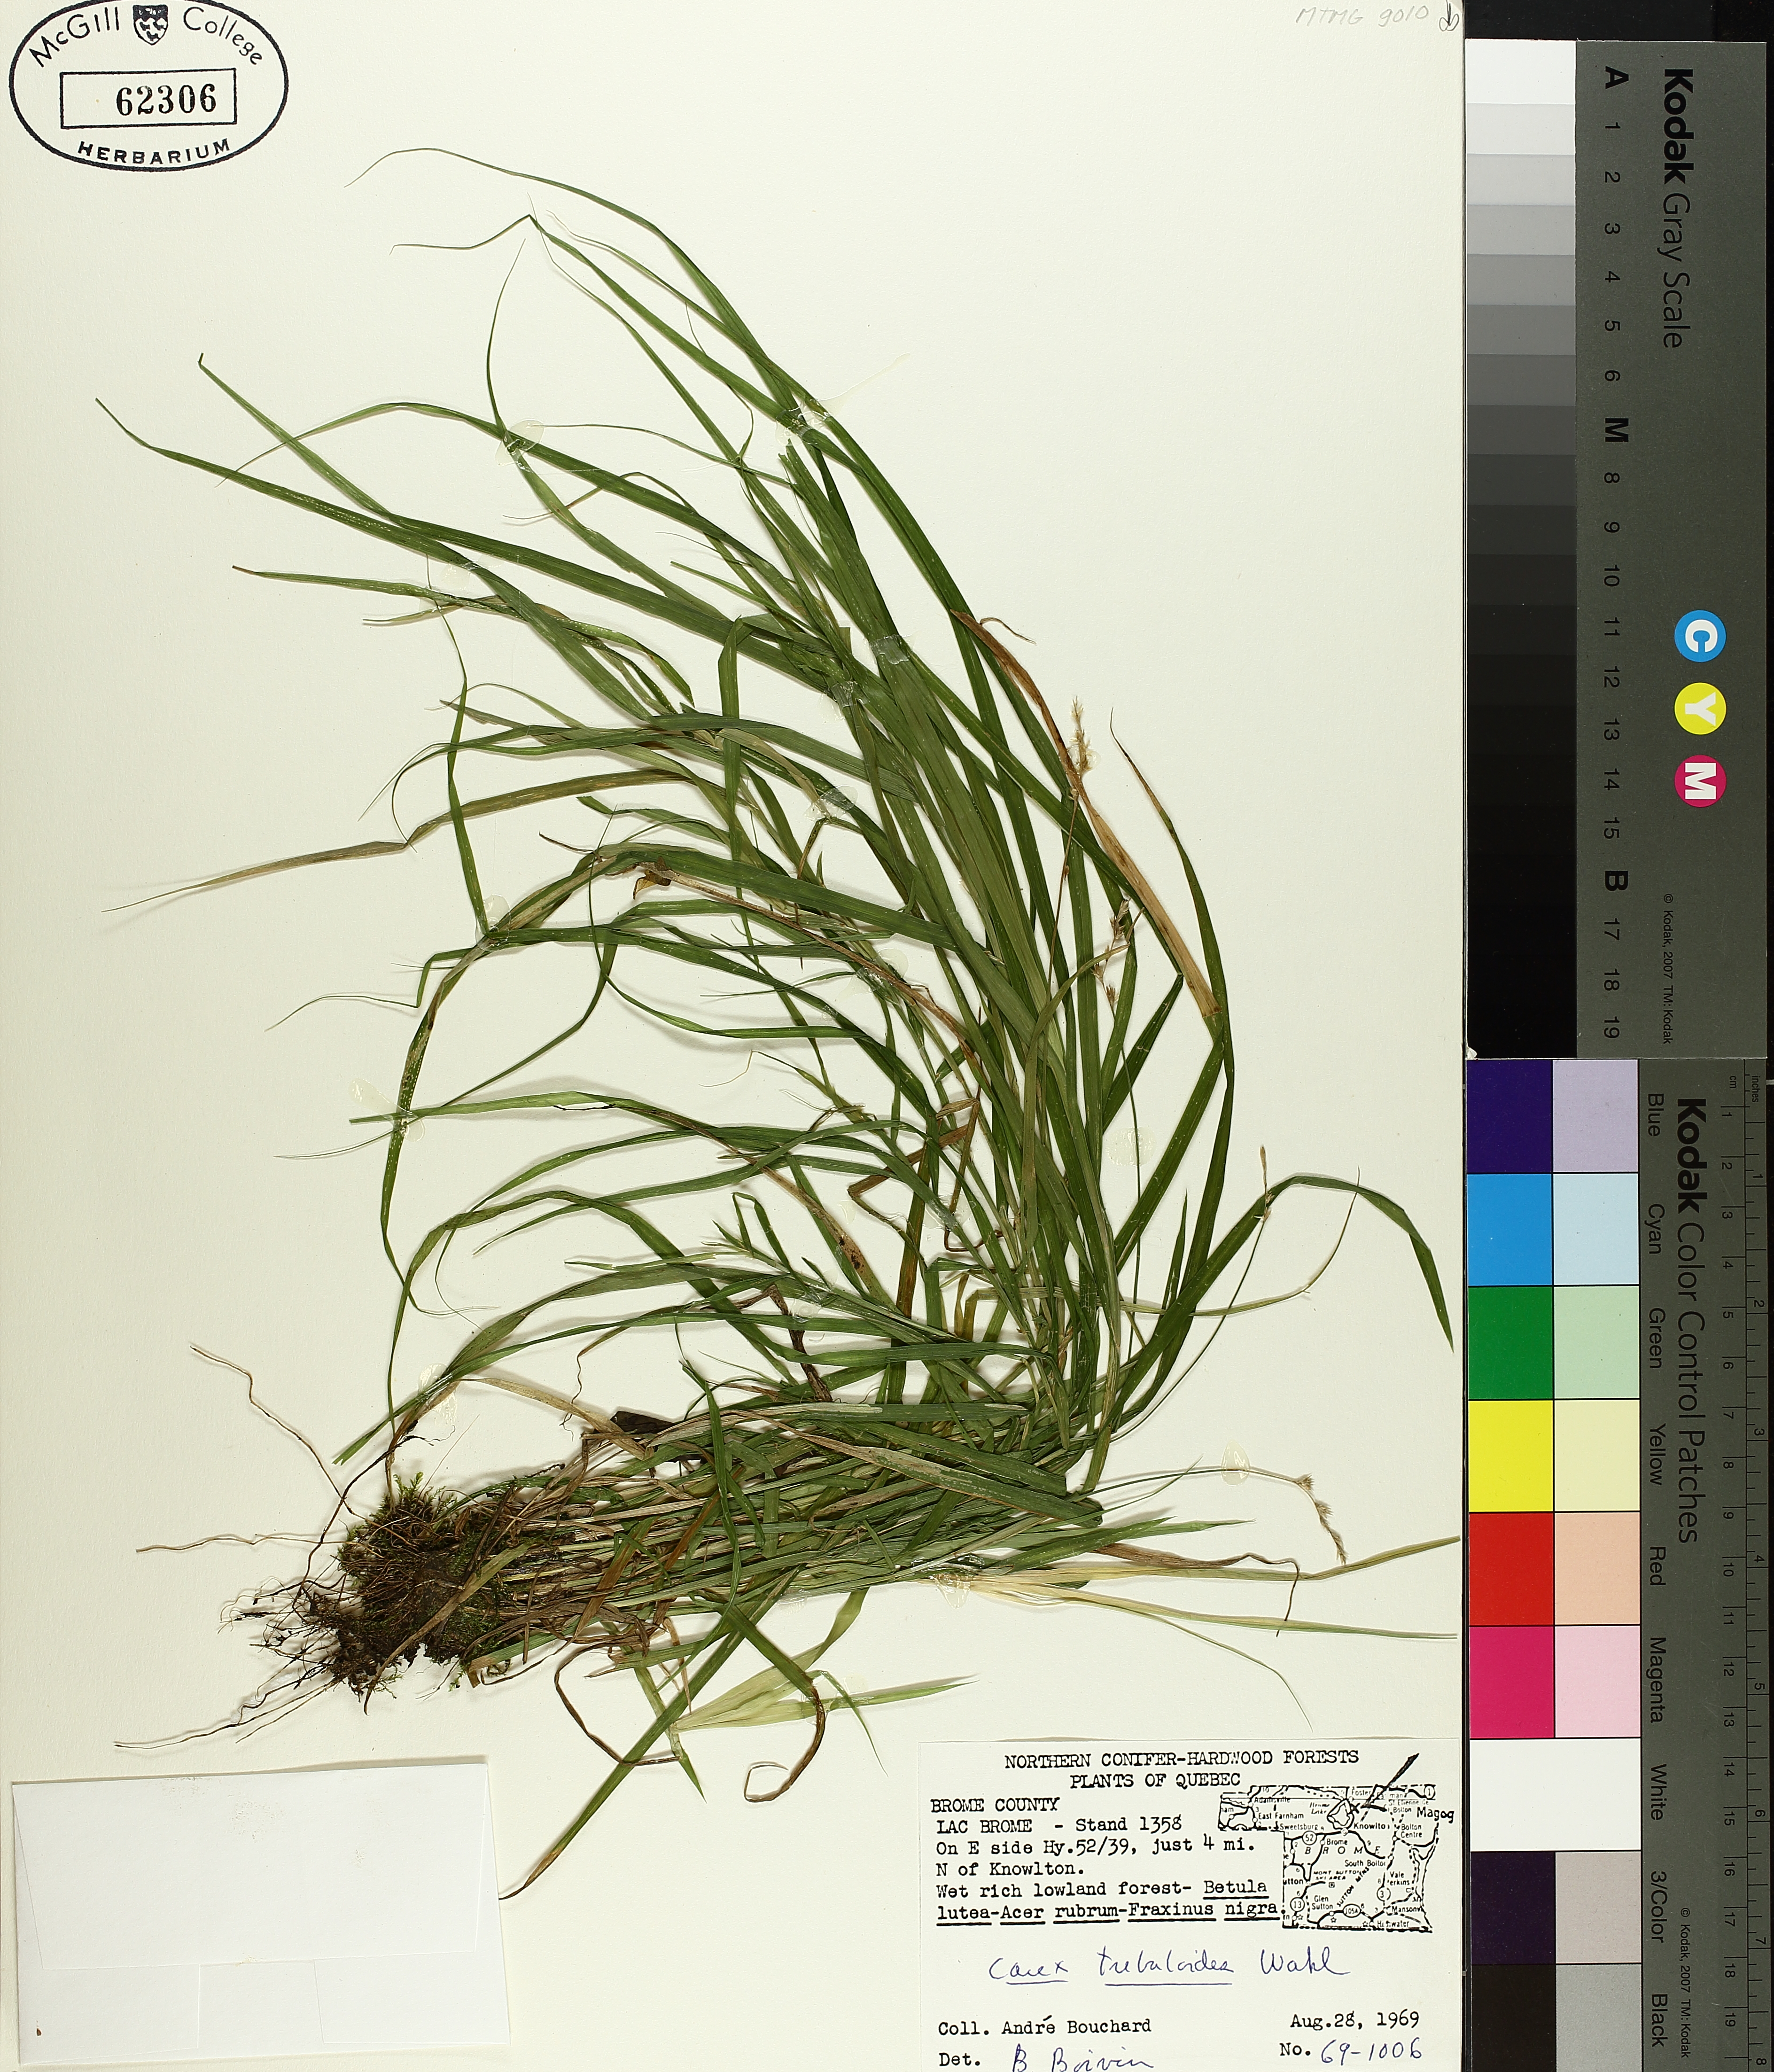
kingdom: Plantae
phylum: Tracheophyta
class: Liliopsida
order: Poales
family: Cyperaceae
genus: Carex
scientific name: Carex tribuloides
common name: Blunt broom sedge
